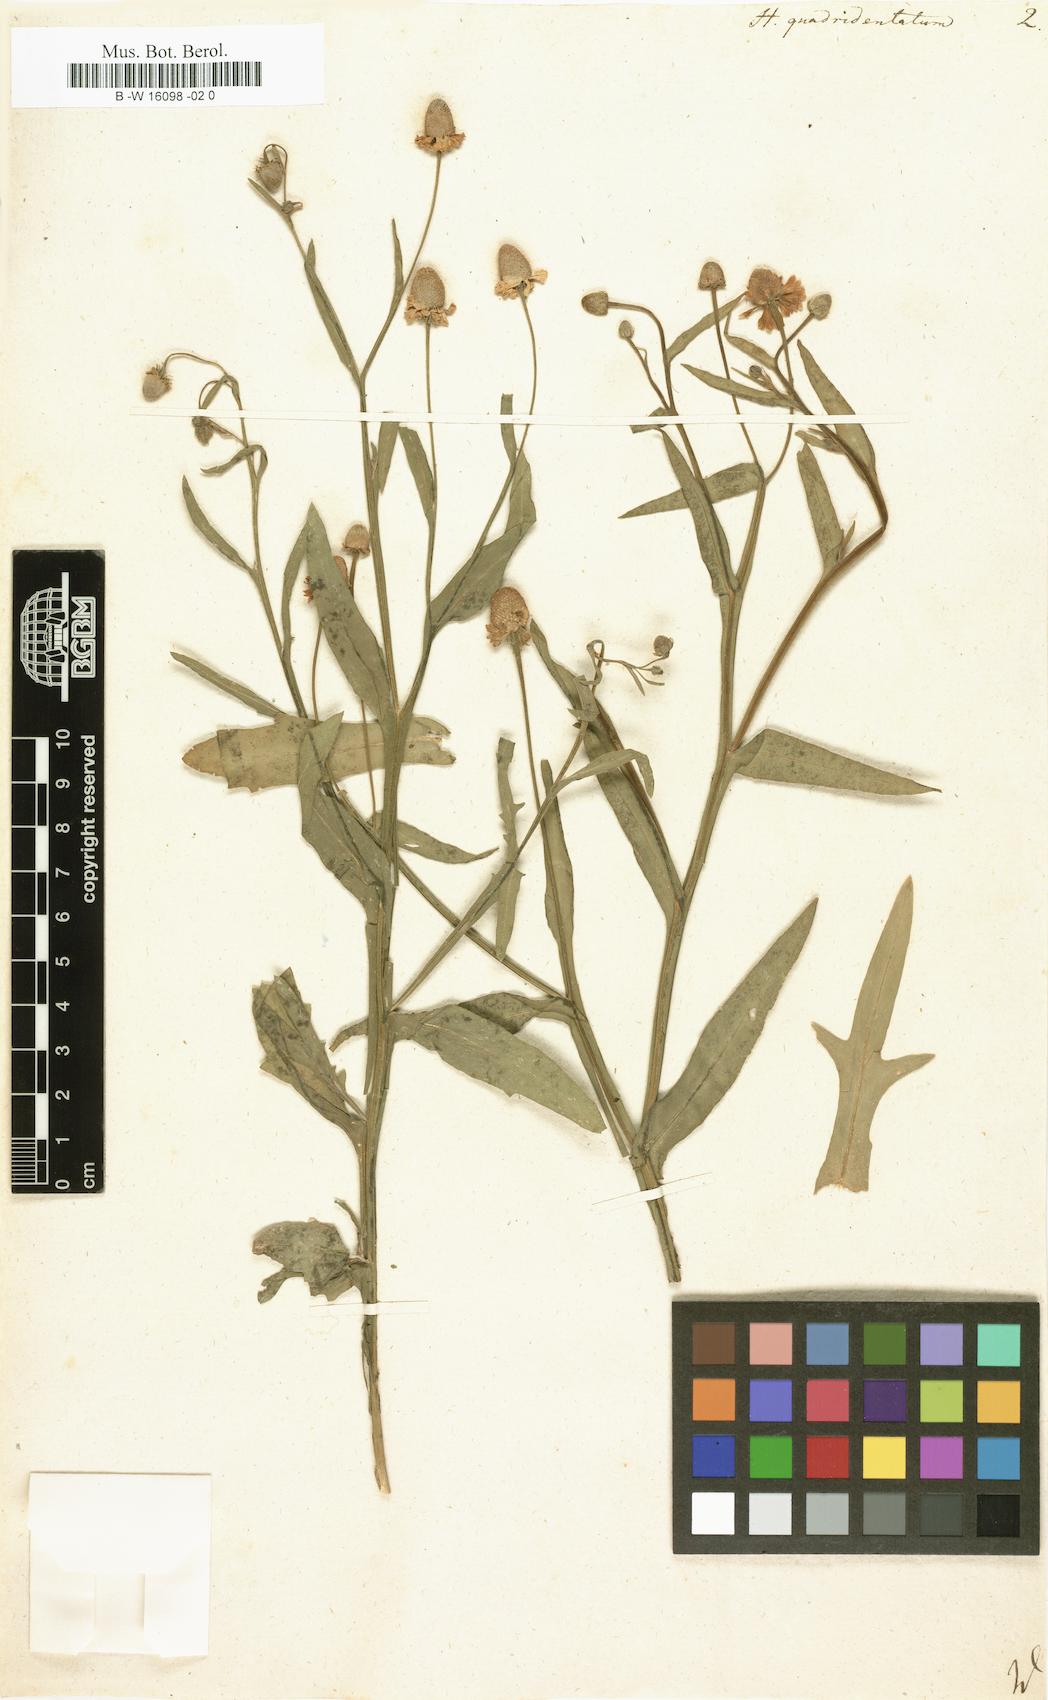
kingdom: Plantae
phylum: Tracheophyta
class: Magnoliopsida
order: Asterales
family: Asteraceae
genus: Helenium
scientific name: Helenium quadridentatum
